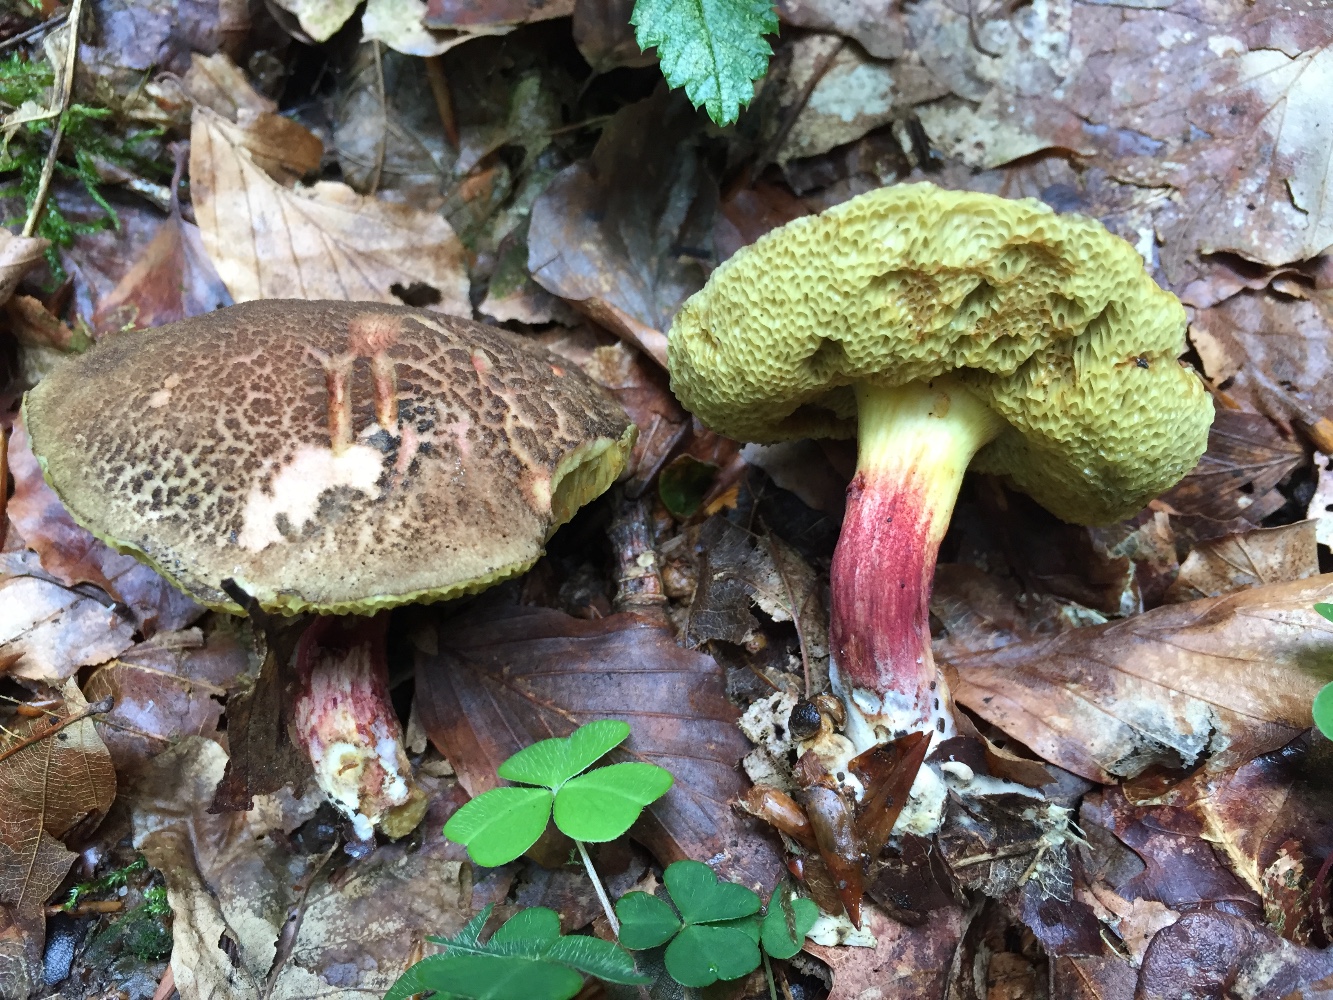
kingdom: Fungi
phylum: Basidiomycota
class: Agaricomycetes
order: Boletales
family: Boletaceae
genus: Xerocomellus
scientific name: Xerocomellus chrysenteron
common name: rødsprukken rørhat
